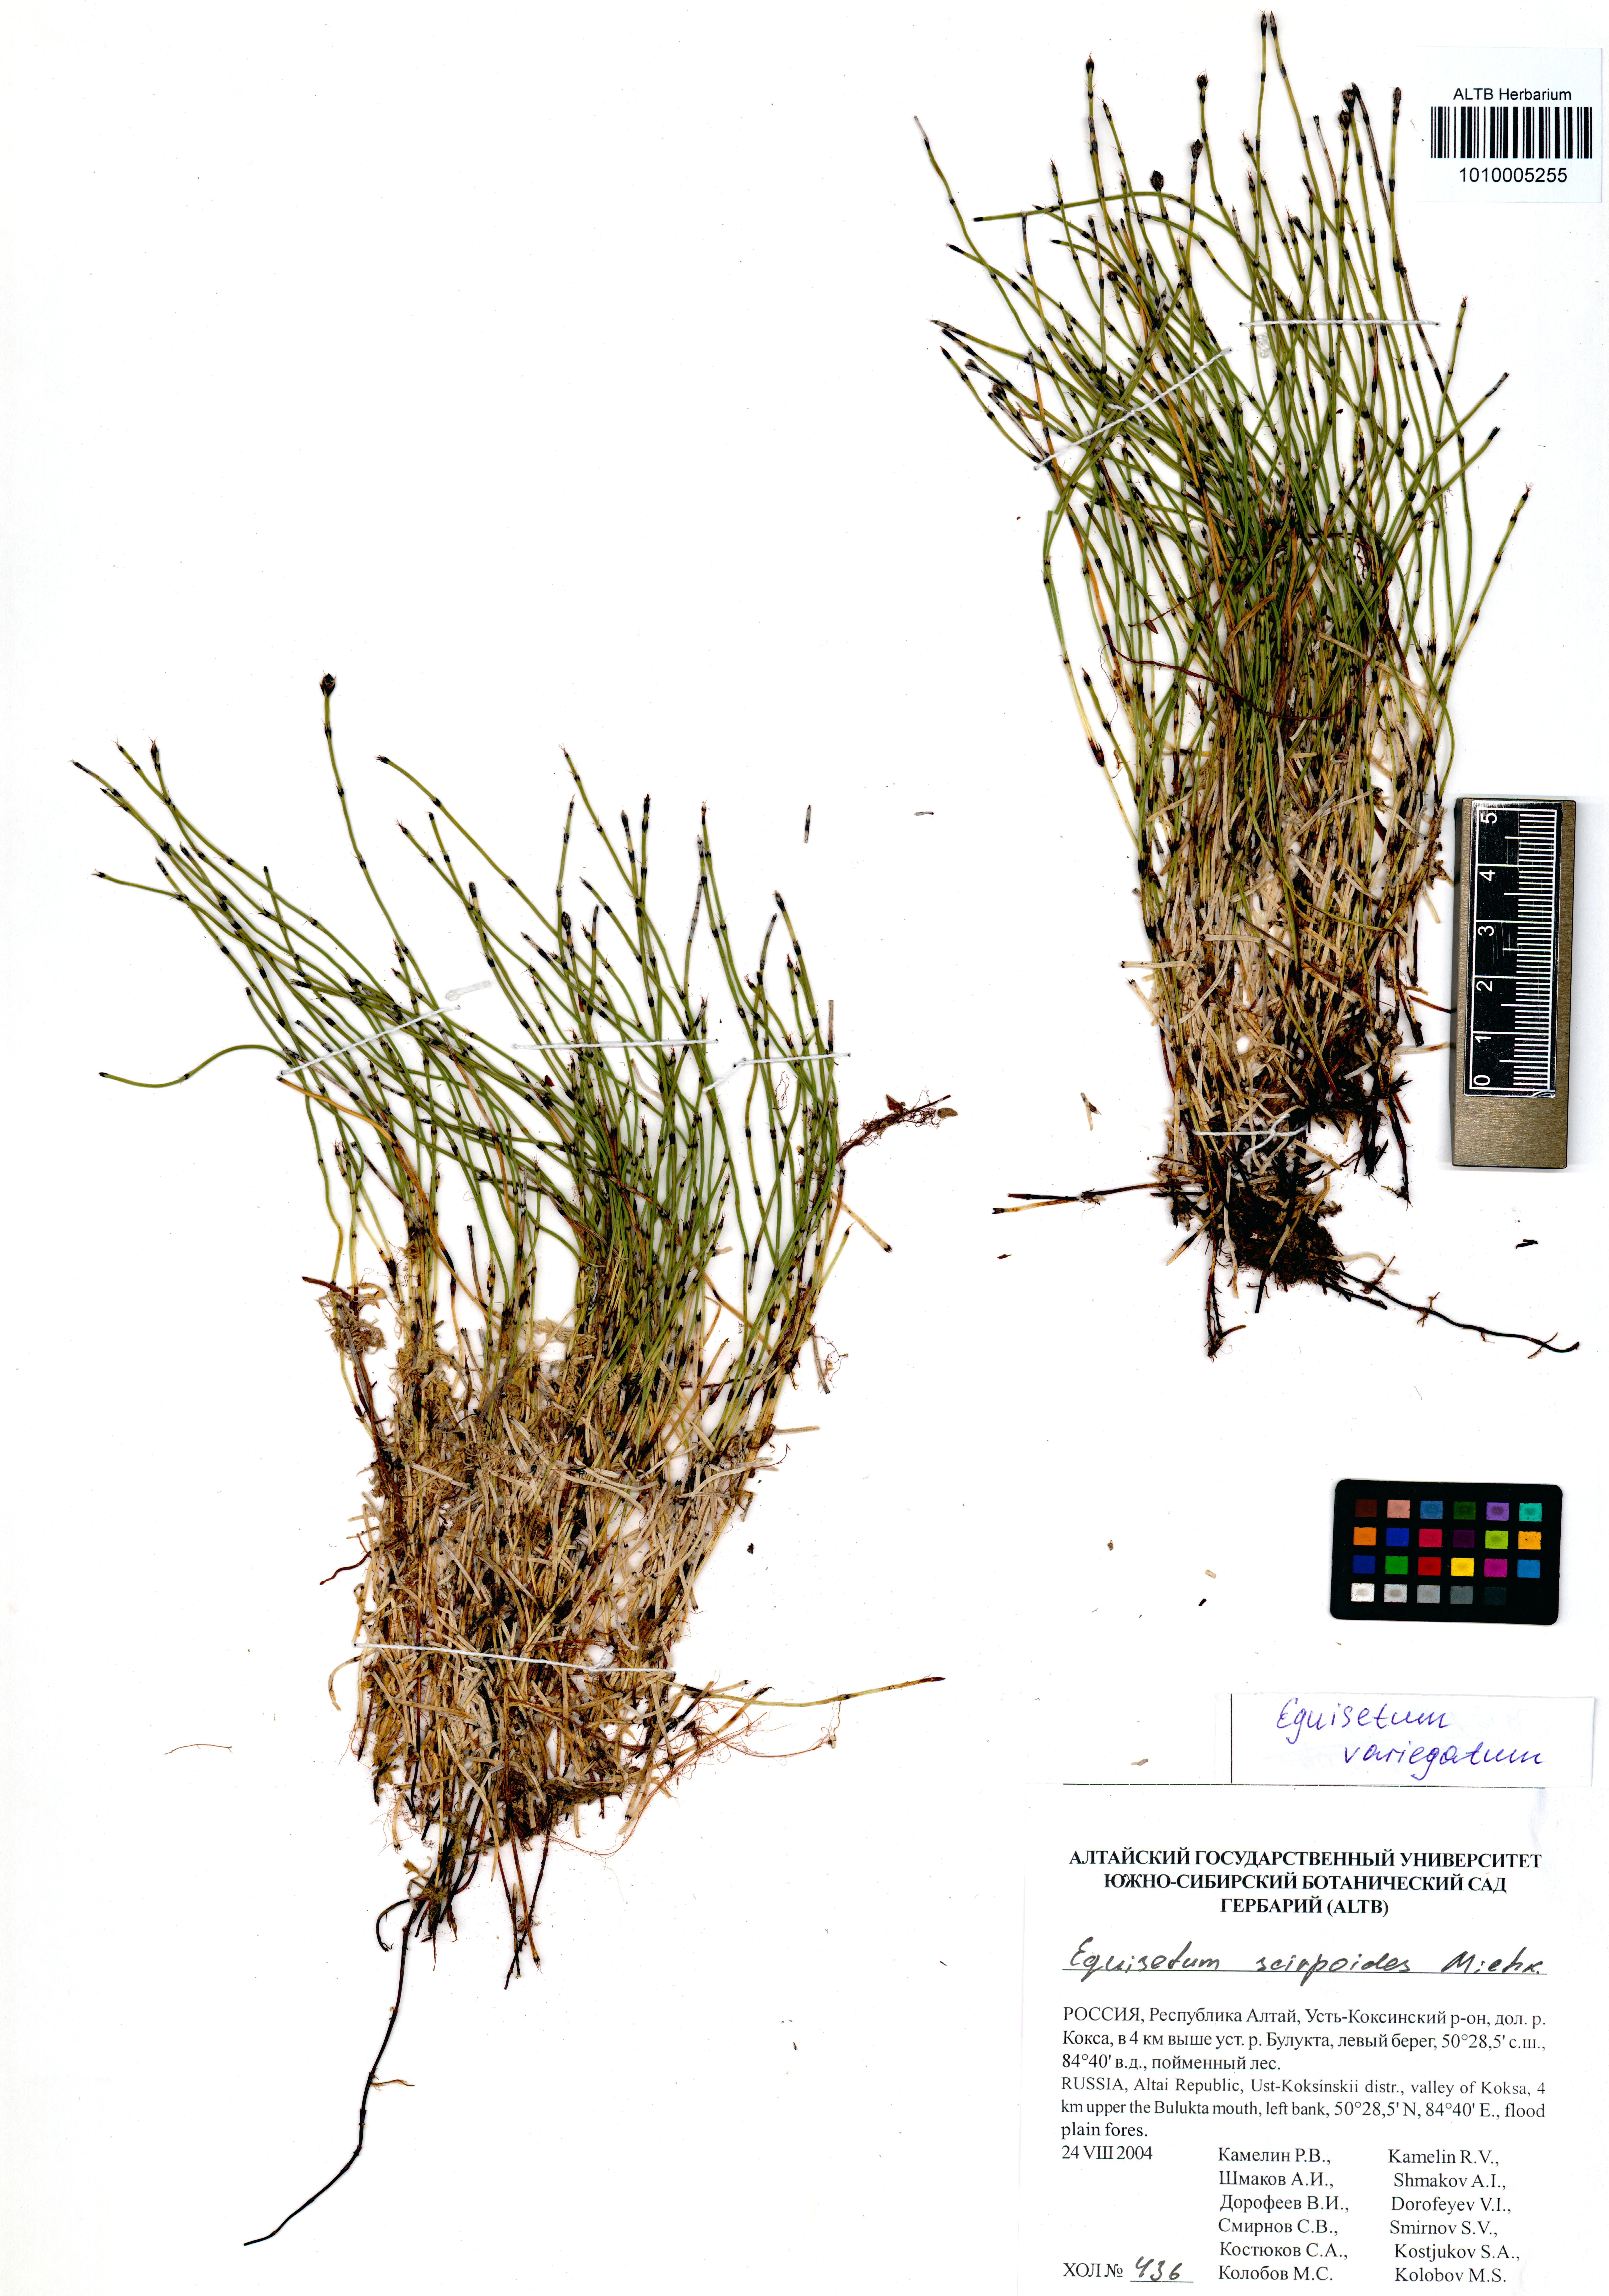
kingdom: Plantae
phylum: Tracheophyta
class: Polypodiopsida
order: Equisetales
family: Equisetaceae
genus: Equisetum
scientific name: Equisetum variegatum
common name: Variegated horsetail
